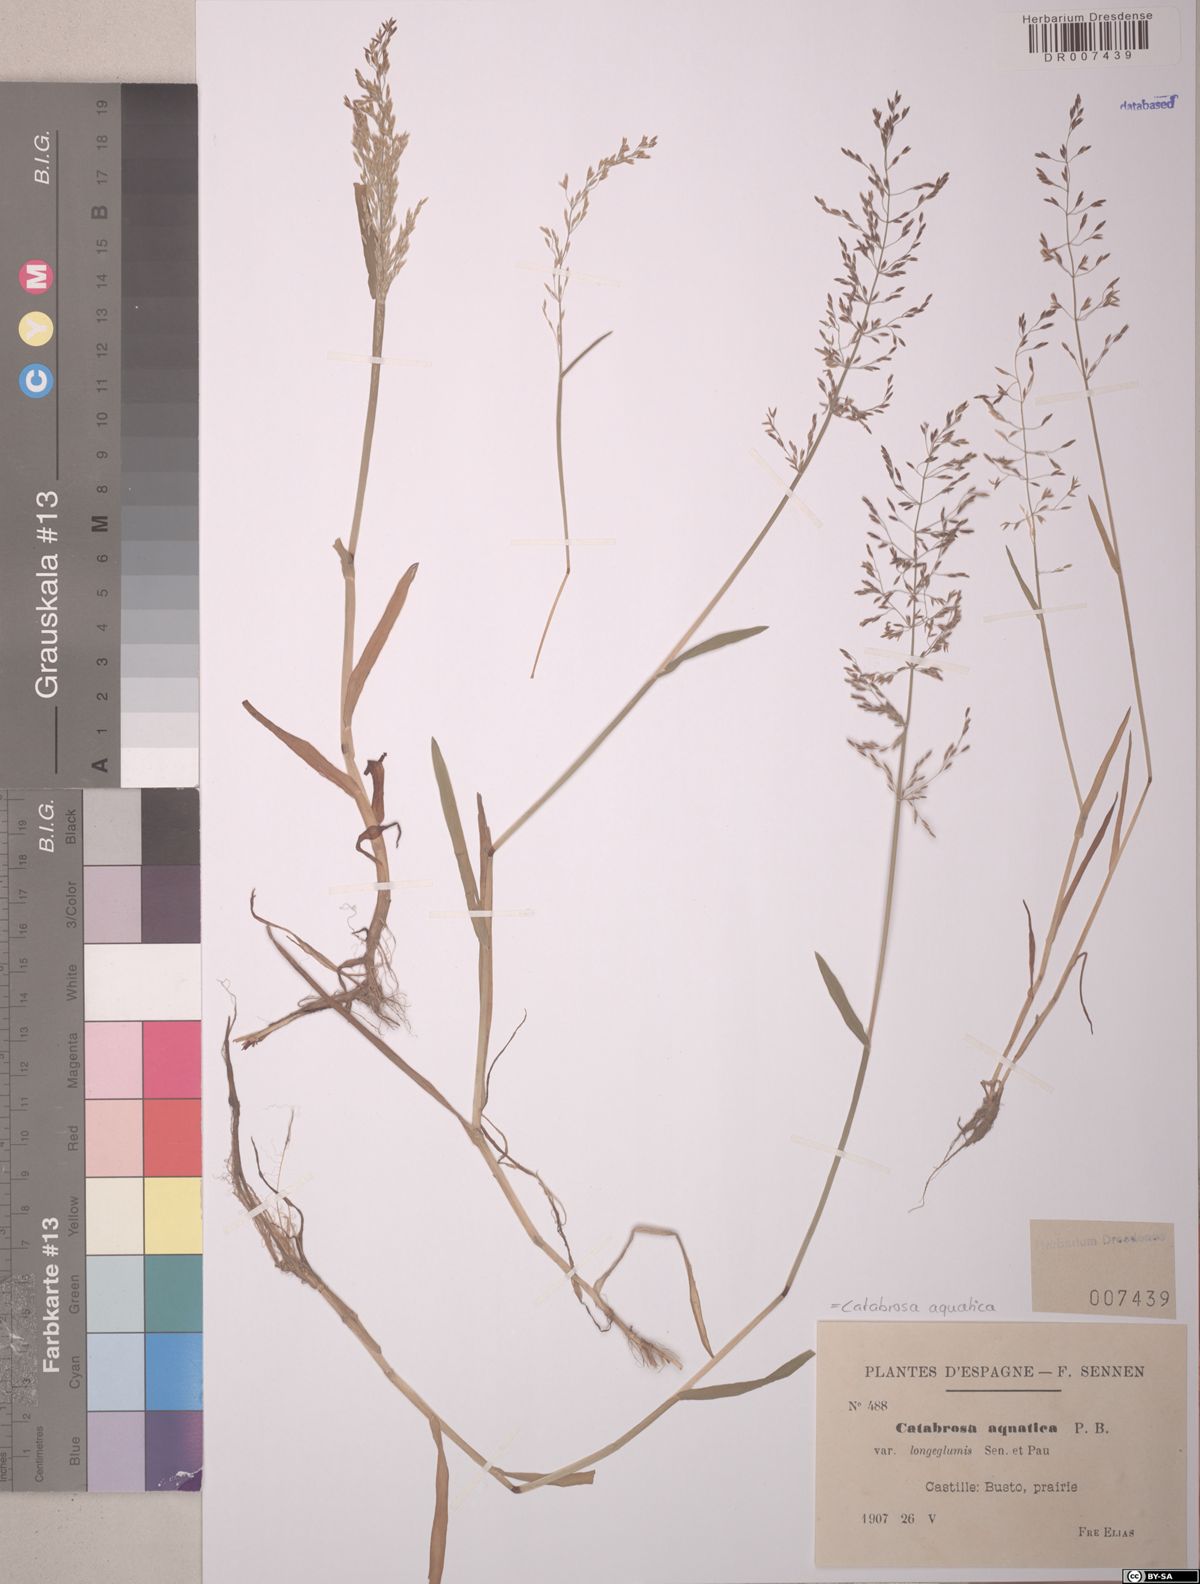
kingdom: Plantae
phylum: Tracheophyta
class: Liliopsida
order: Poales
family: Poaceae
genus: Catabrosa
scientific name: Catabrosa aquatica
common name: Whorl-grass
